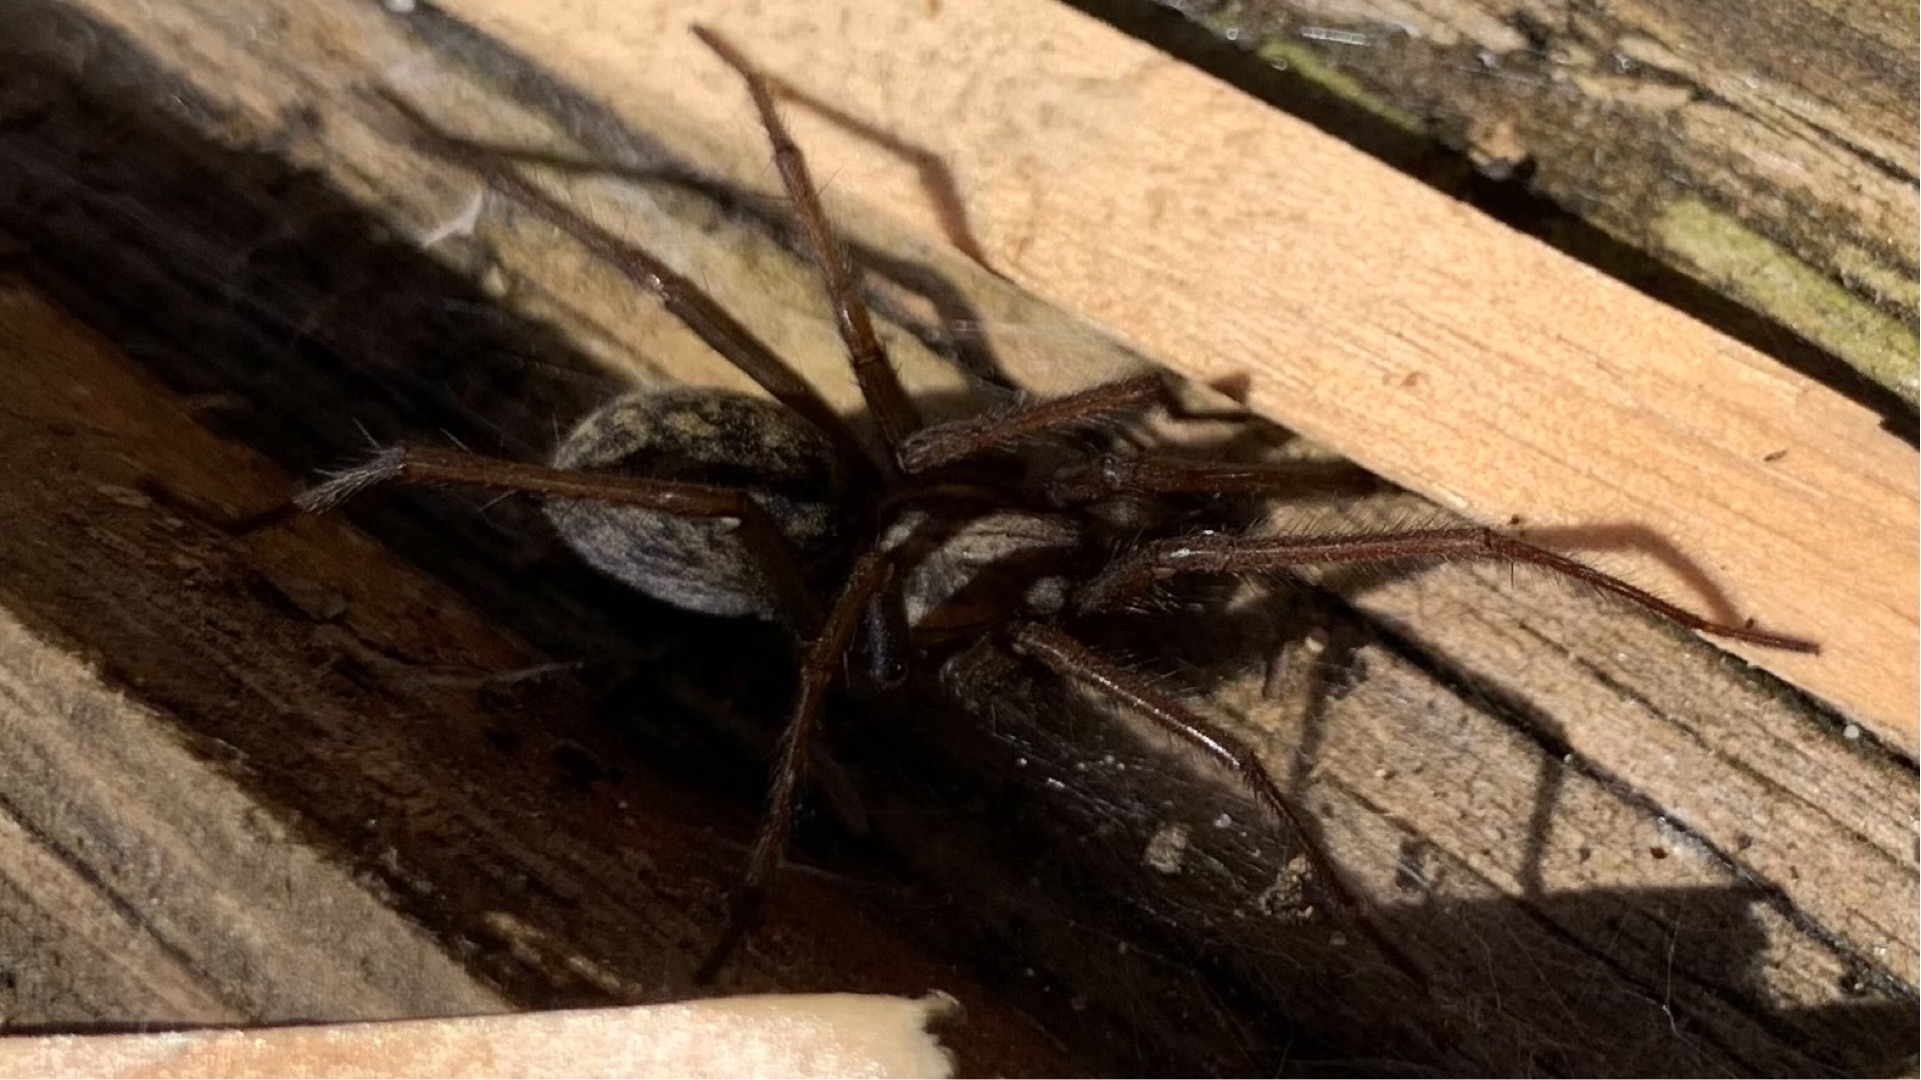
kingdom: Animalia
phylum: Arthropoda
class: Arachnida
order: Araneae
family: Agelenidae
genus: Eratigena
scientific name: Eratigena atrica
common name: Stor husedderkop
